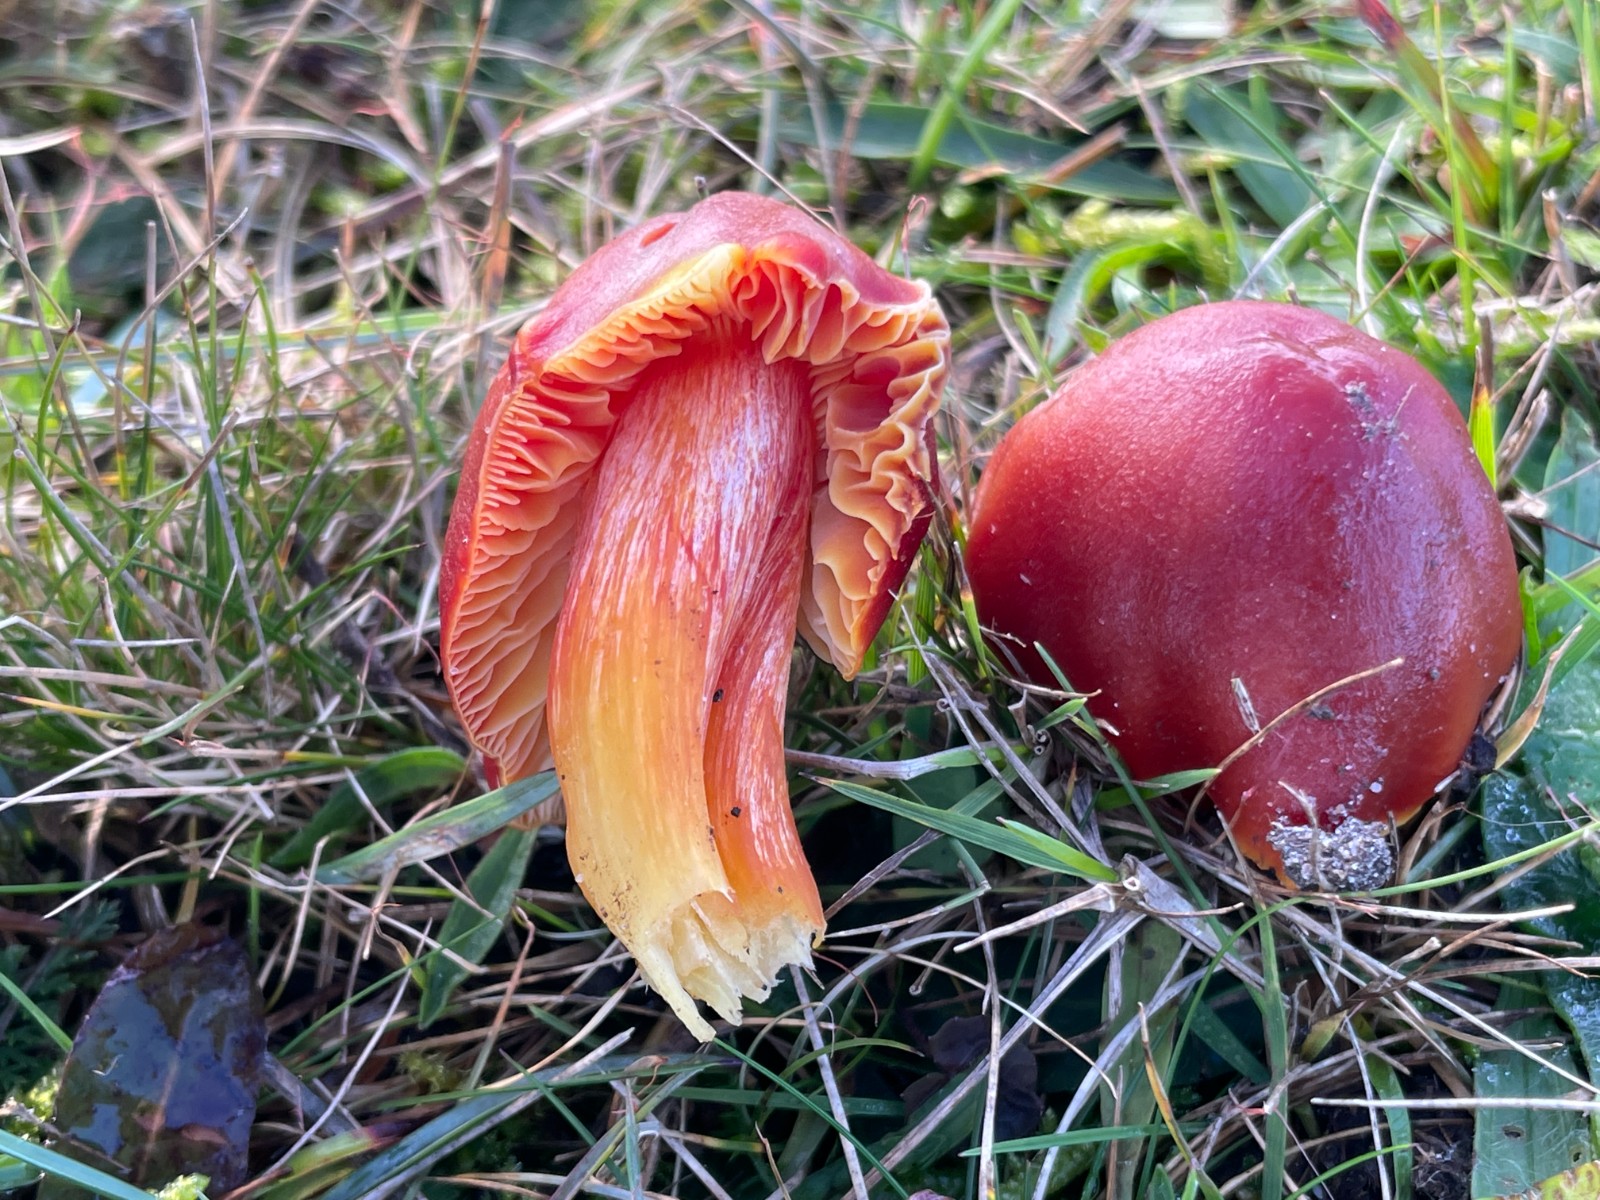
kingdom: Fungi
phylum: Basidiomycota
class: Agaricomycetes
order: Agaricales
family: Hygrophoraceae
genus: Hygrocybe
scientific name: Hygrocybe punicea
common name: skarlagen-vokshat
